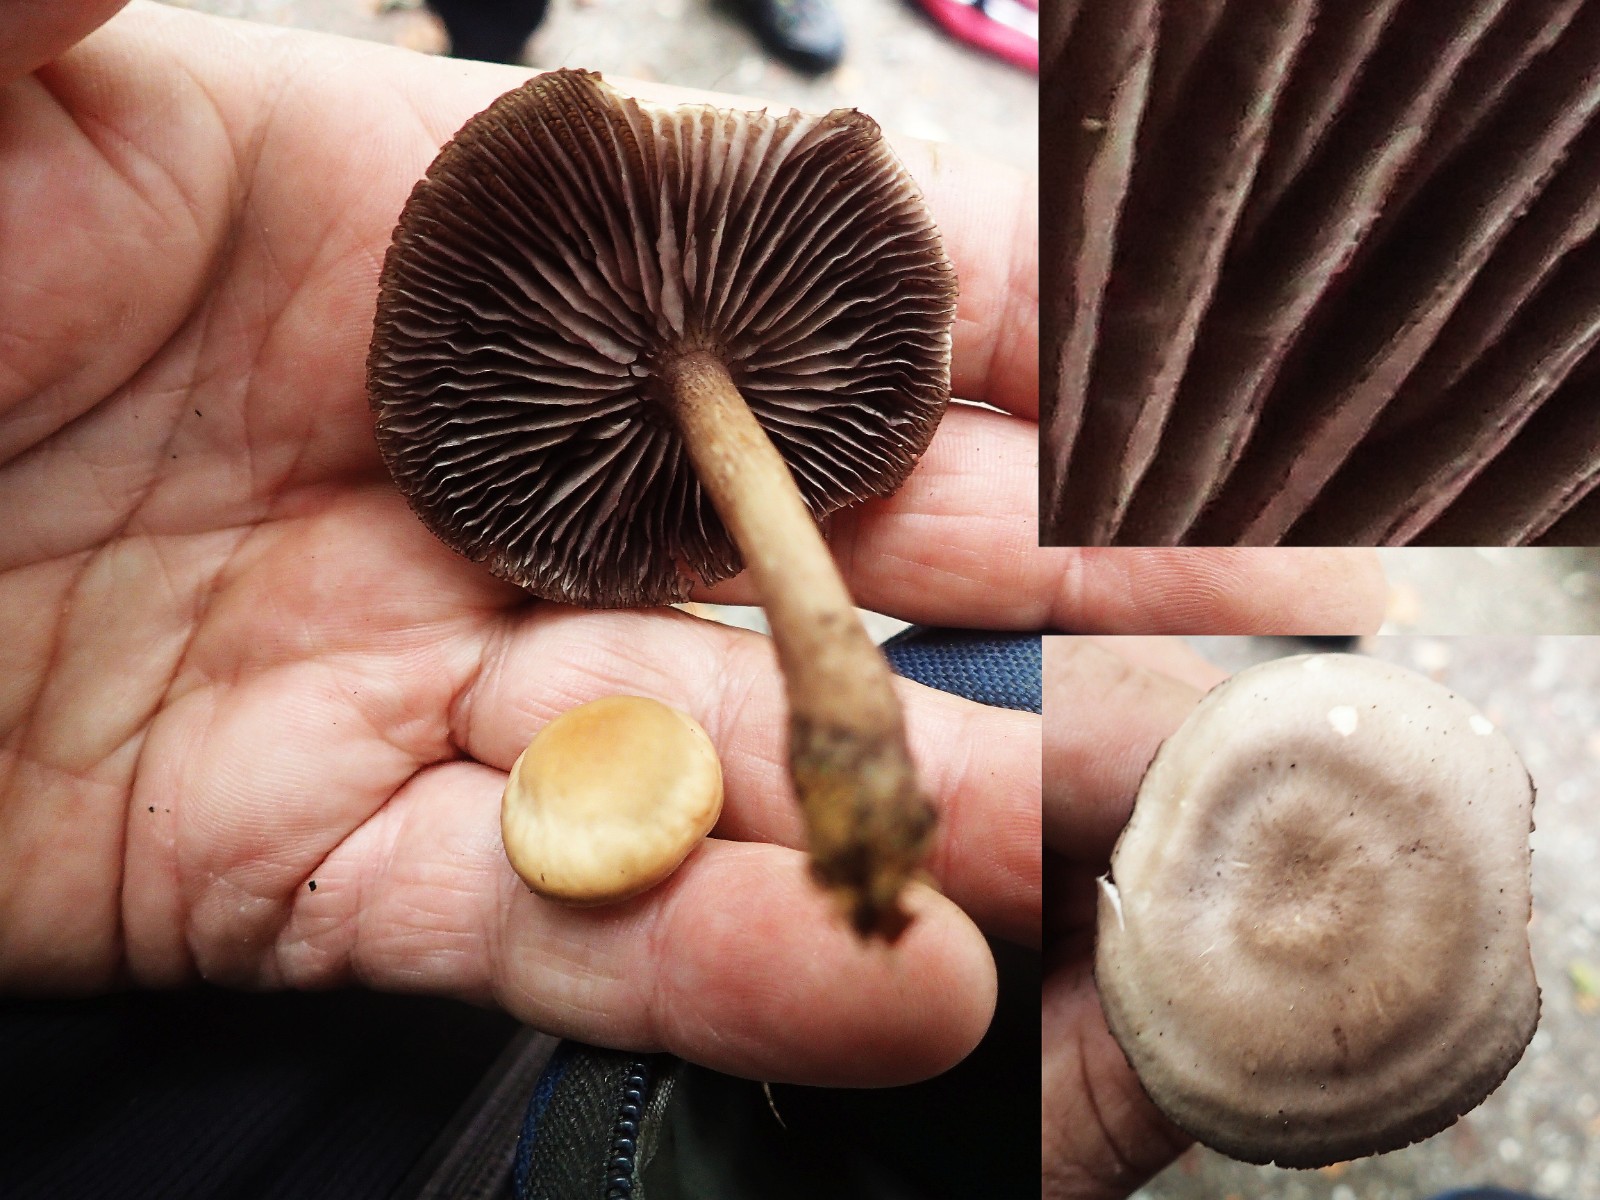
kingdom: Fungi
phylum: Basidiomycota
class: Agaricomycetes
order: Agaricales
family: Mycenaceae
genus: Mycena
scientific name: Mycena pelianthina
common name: mørkbladet huesvamp
